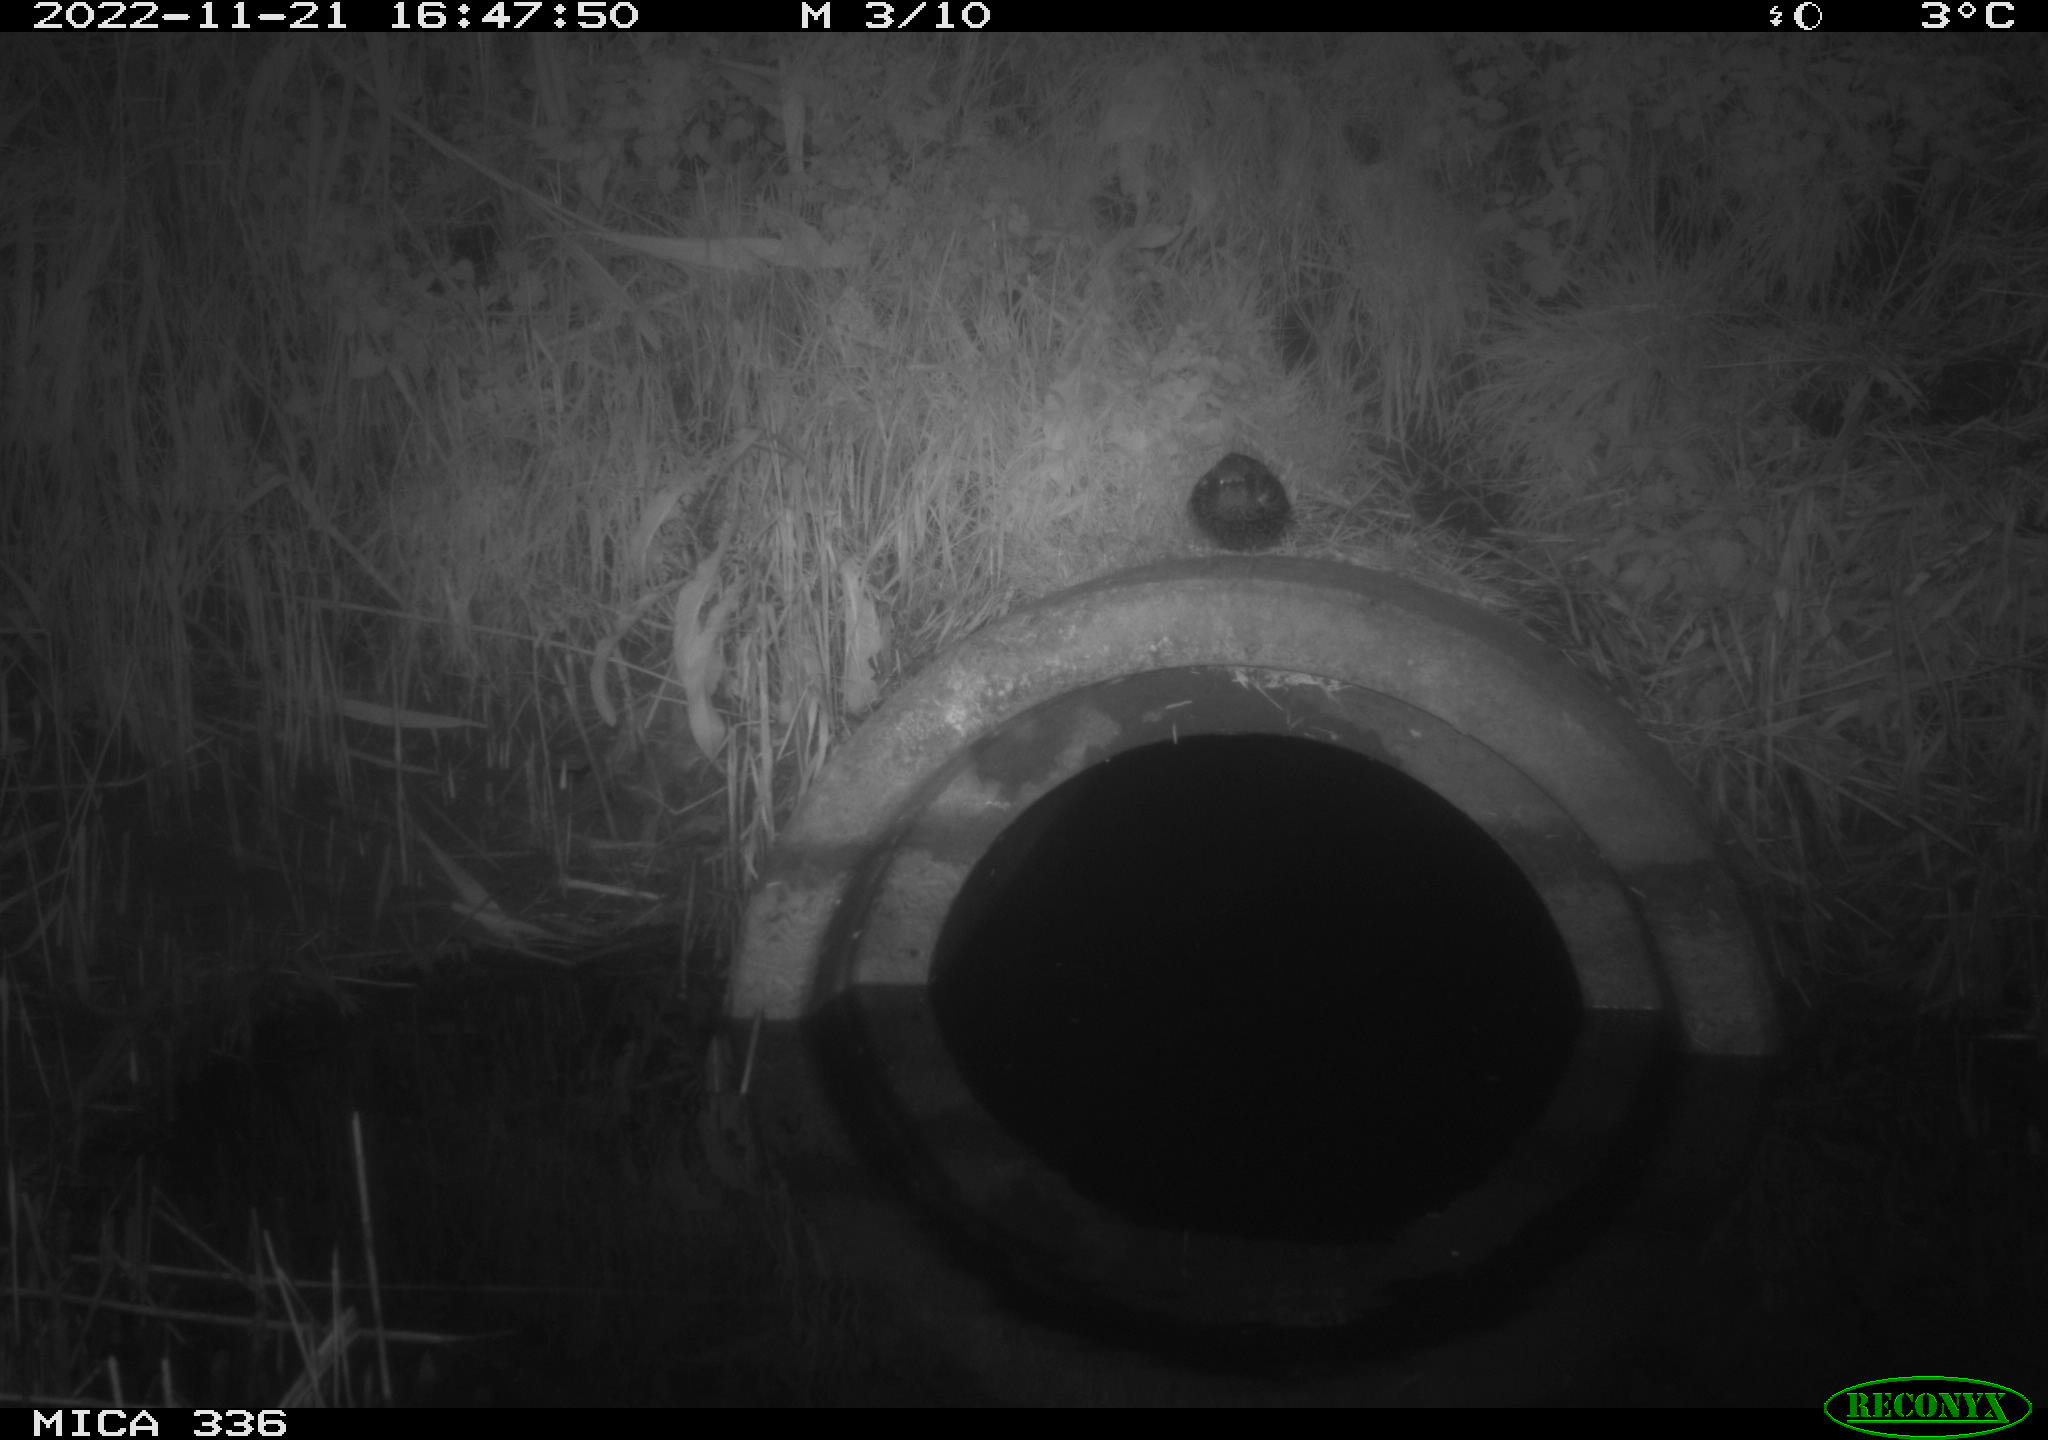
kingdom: Animalia
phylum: Chordata
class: Mammalia
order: Rodentia
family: Sciuridae
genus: Sciurus
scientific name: Sciurus vulgaris
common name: Eurasian red squirrel
